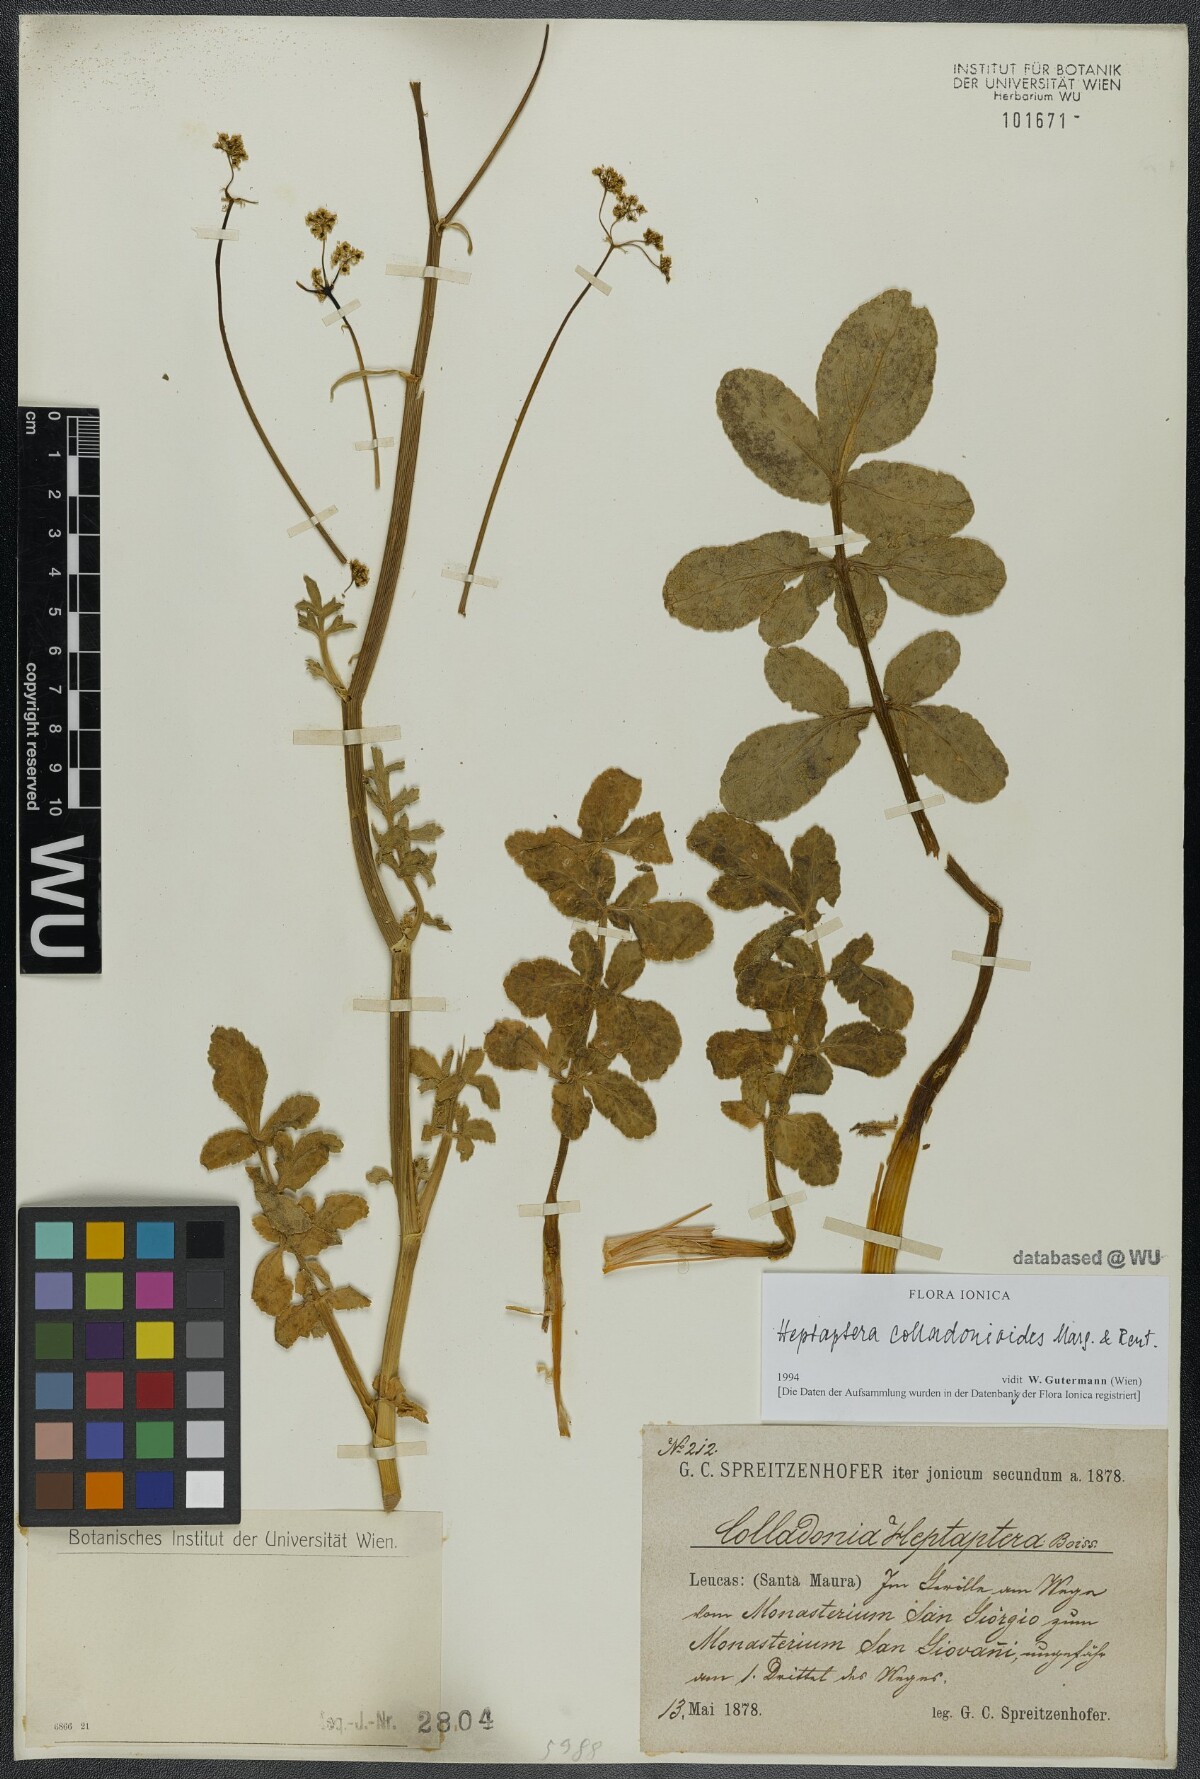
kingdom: Plantae
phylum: Tracheophyta
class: Magnoliopsida
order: Apiales
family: Apiaceae
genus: Heptaptera
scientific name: Heptaptera colladonioides
